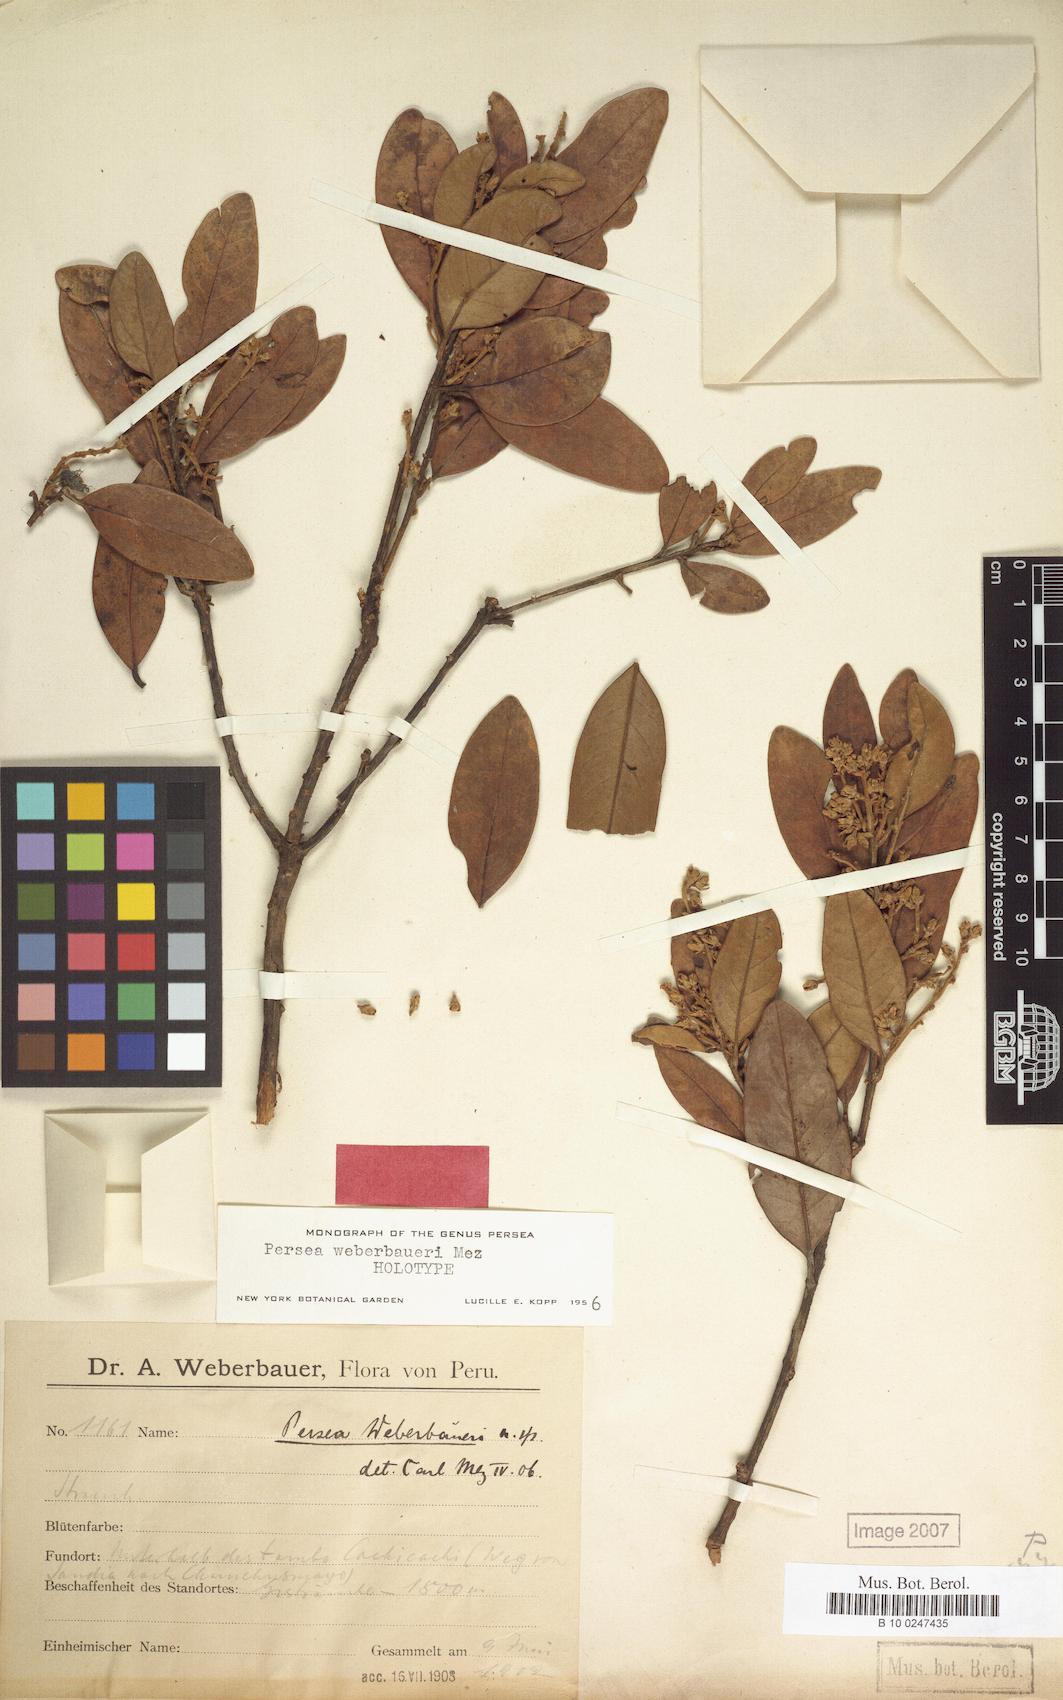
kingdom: Plantae
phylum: Tracheophyta
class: Magnoliopsida
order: Laurales
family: Lauraceae
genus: Persea
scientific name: Persea weberbaueri
